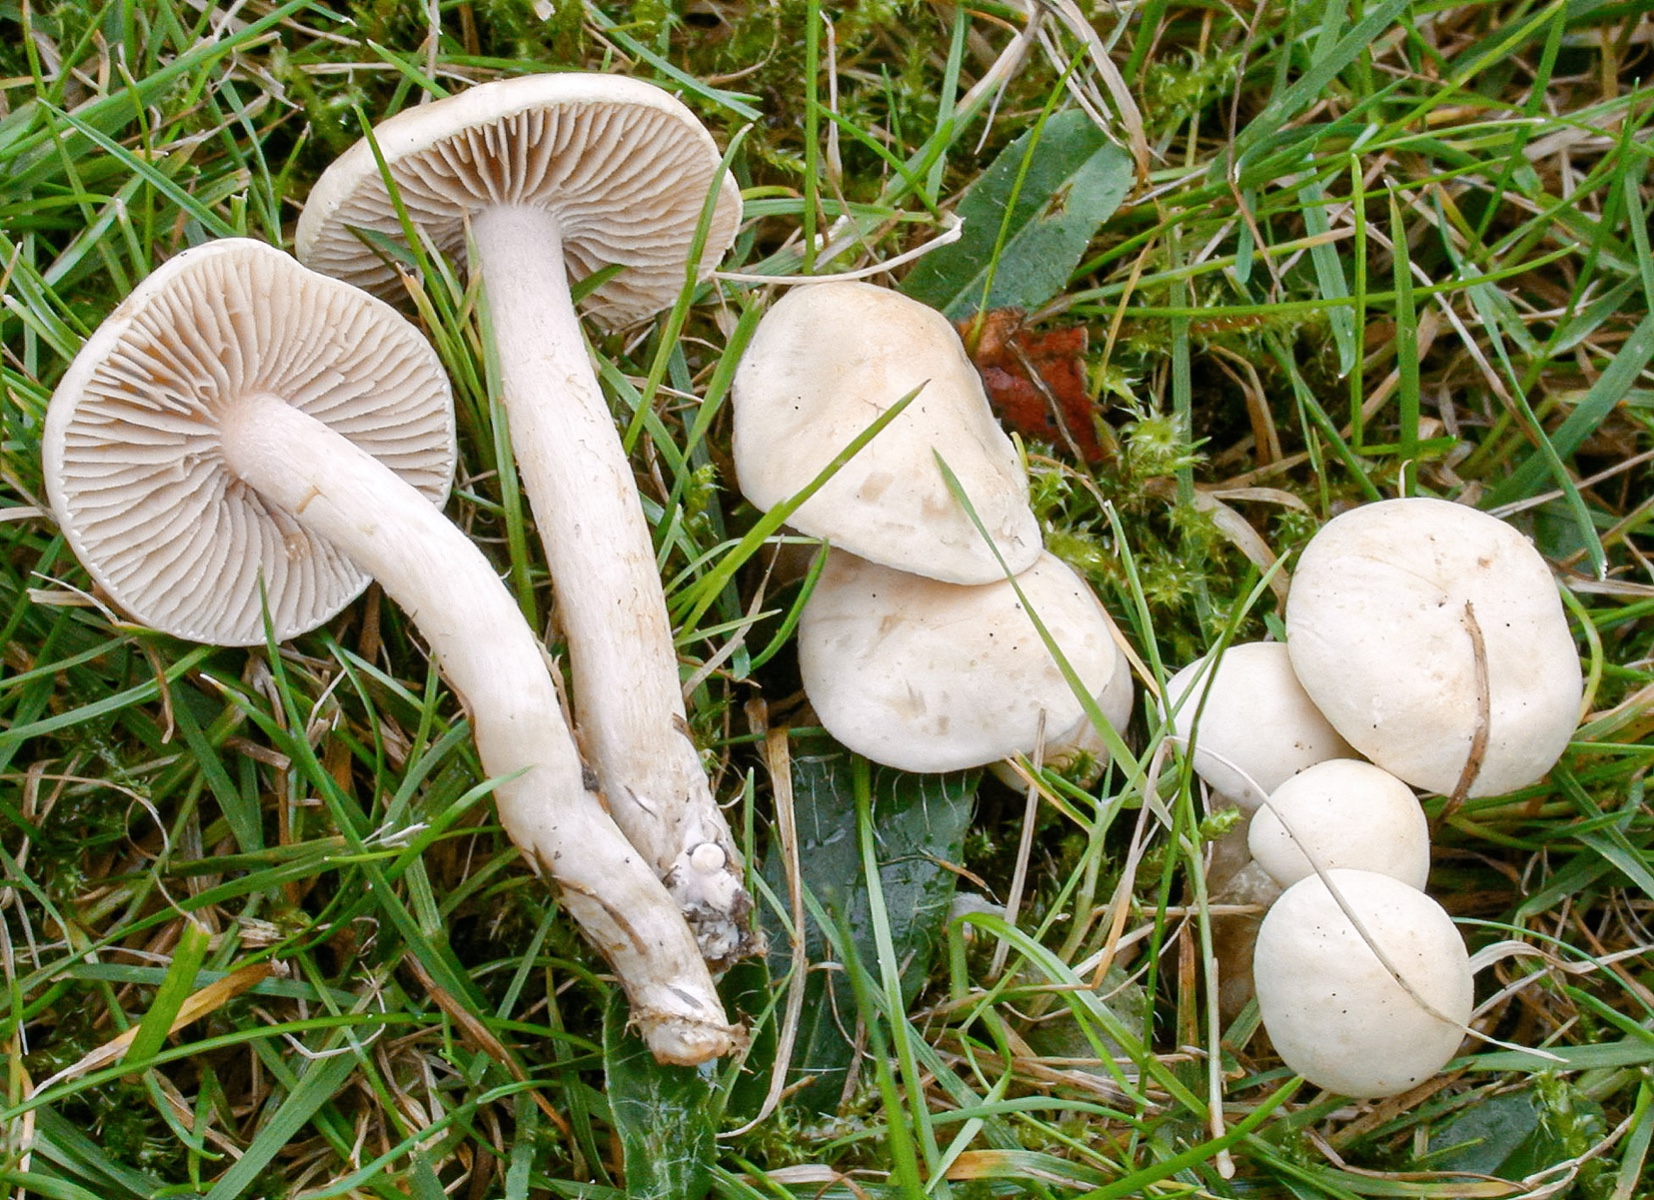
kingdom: Fungi
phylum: Basidiomycota
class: Agaricomycetes
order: Agaricales
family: Hymenogastraceae
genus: Hebeloma
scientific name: Hebeloma ischnostylum
